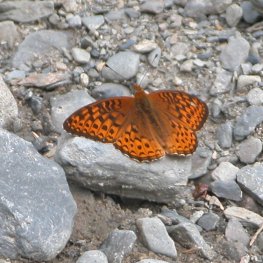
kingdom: Animalia
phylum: Arthropoda
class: Insecta
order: Lepidoptera
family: Nymphalidae
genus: Speyeria
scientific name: Speyeria atlantis
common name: Atlantis Fritillary
